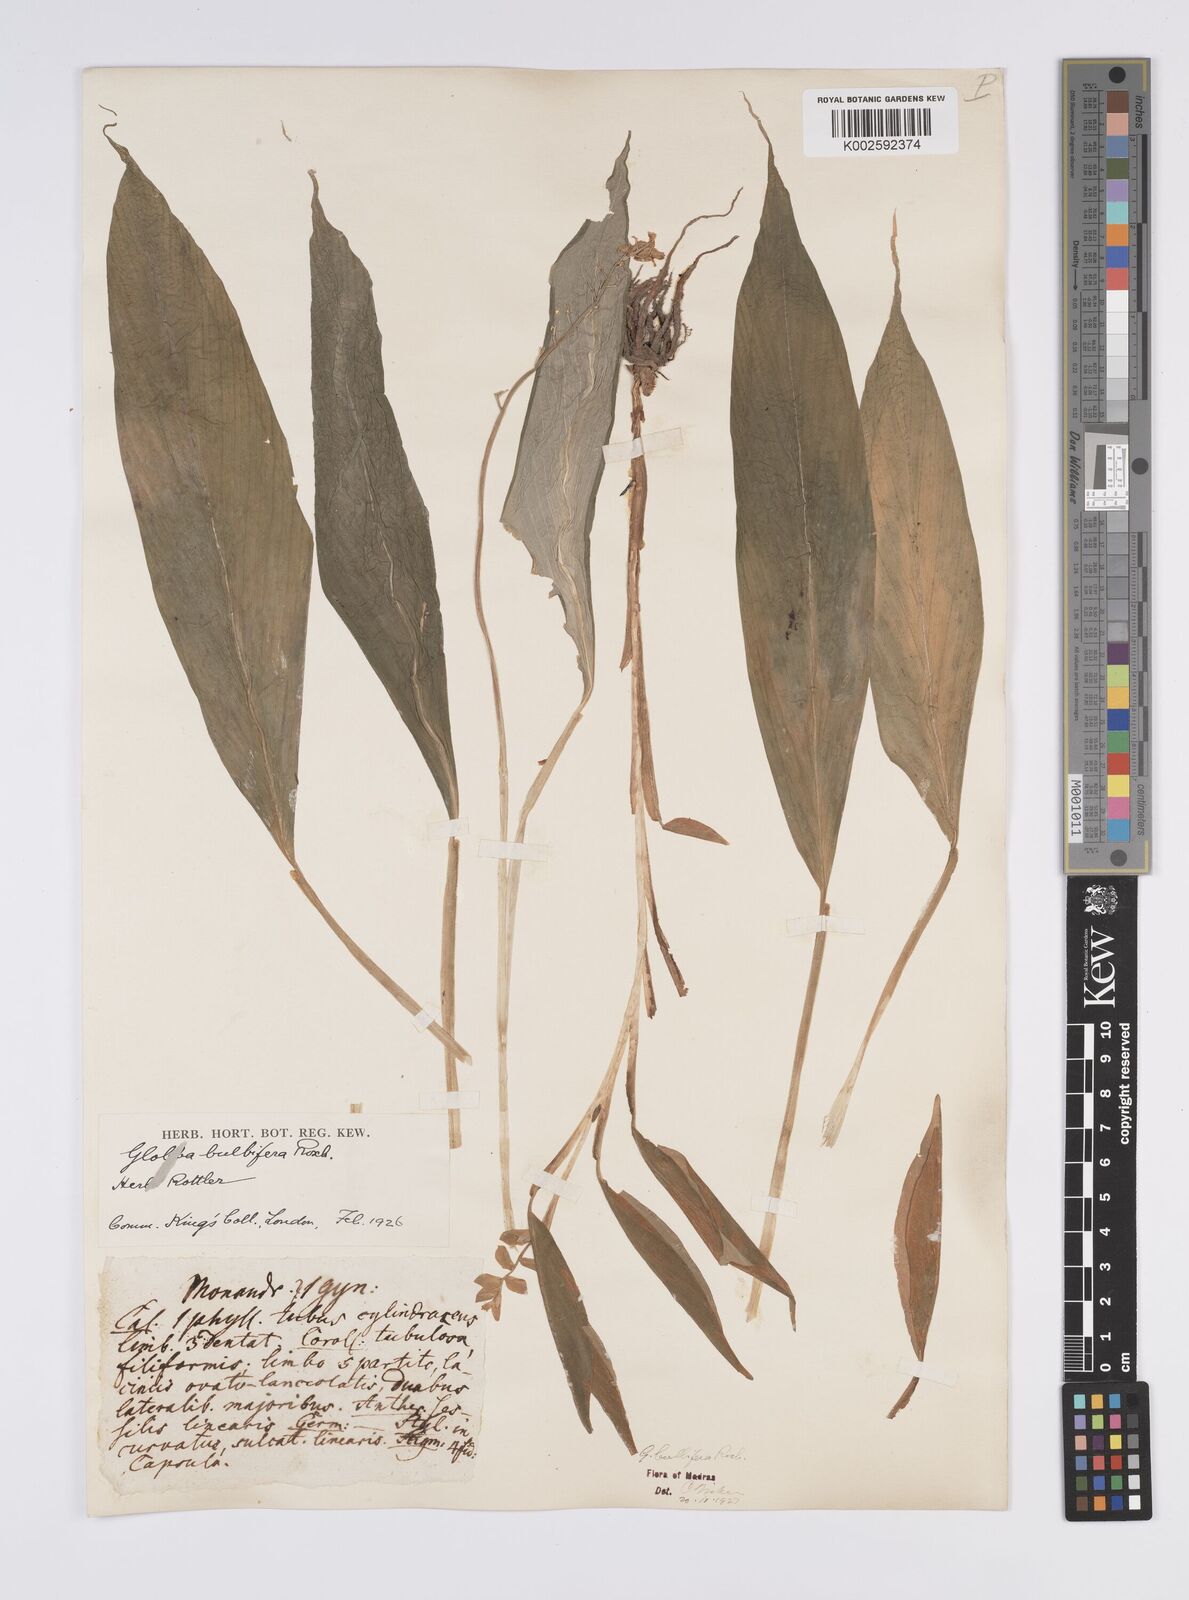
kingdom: Plantae
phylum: Tracheophyta
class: Liliopsida
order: Zingiberales
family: Zingiberaceae
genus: Globba
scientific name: Globba marantina
